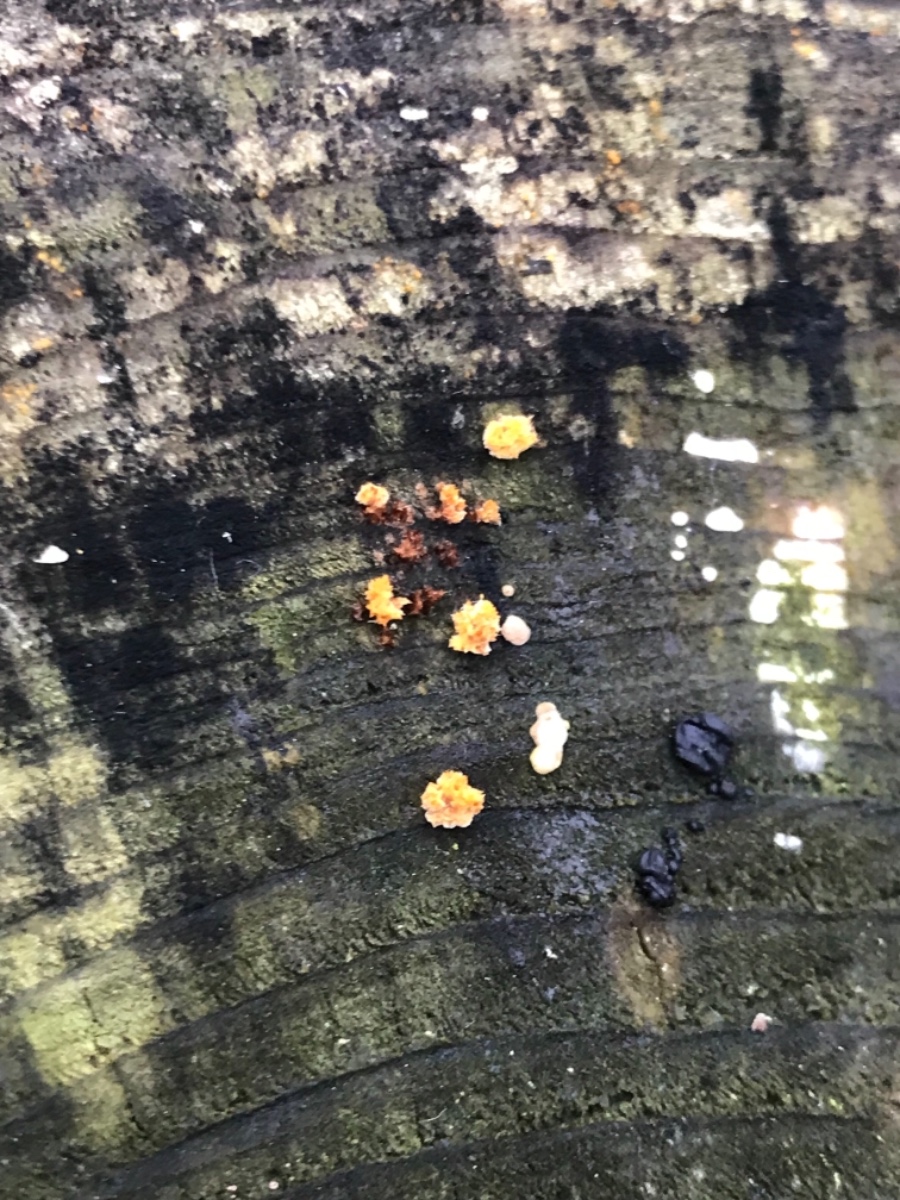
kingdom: Fungi
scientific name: Fungi
